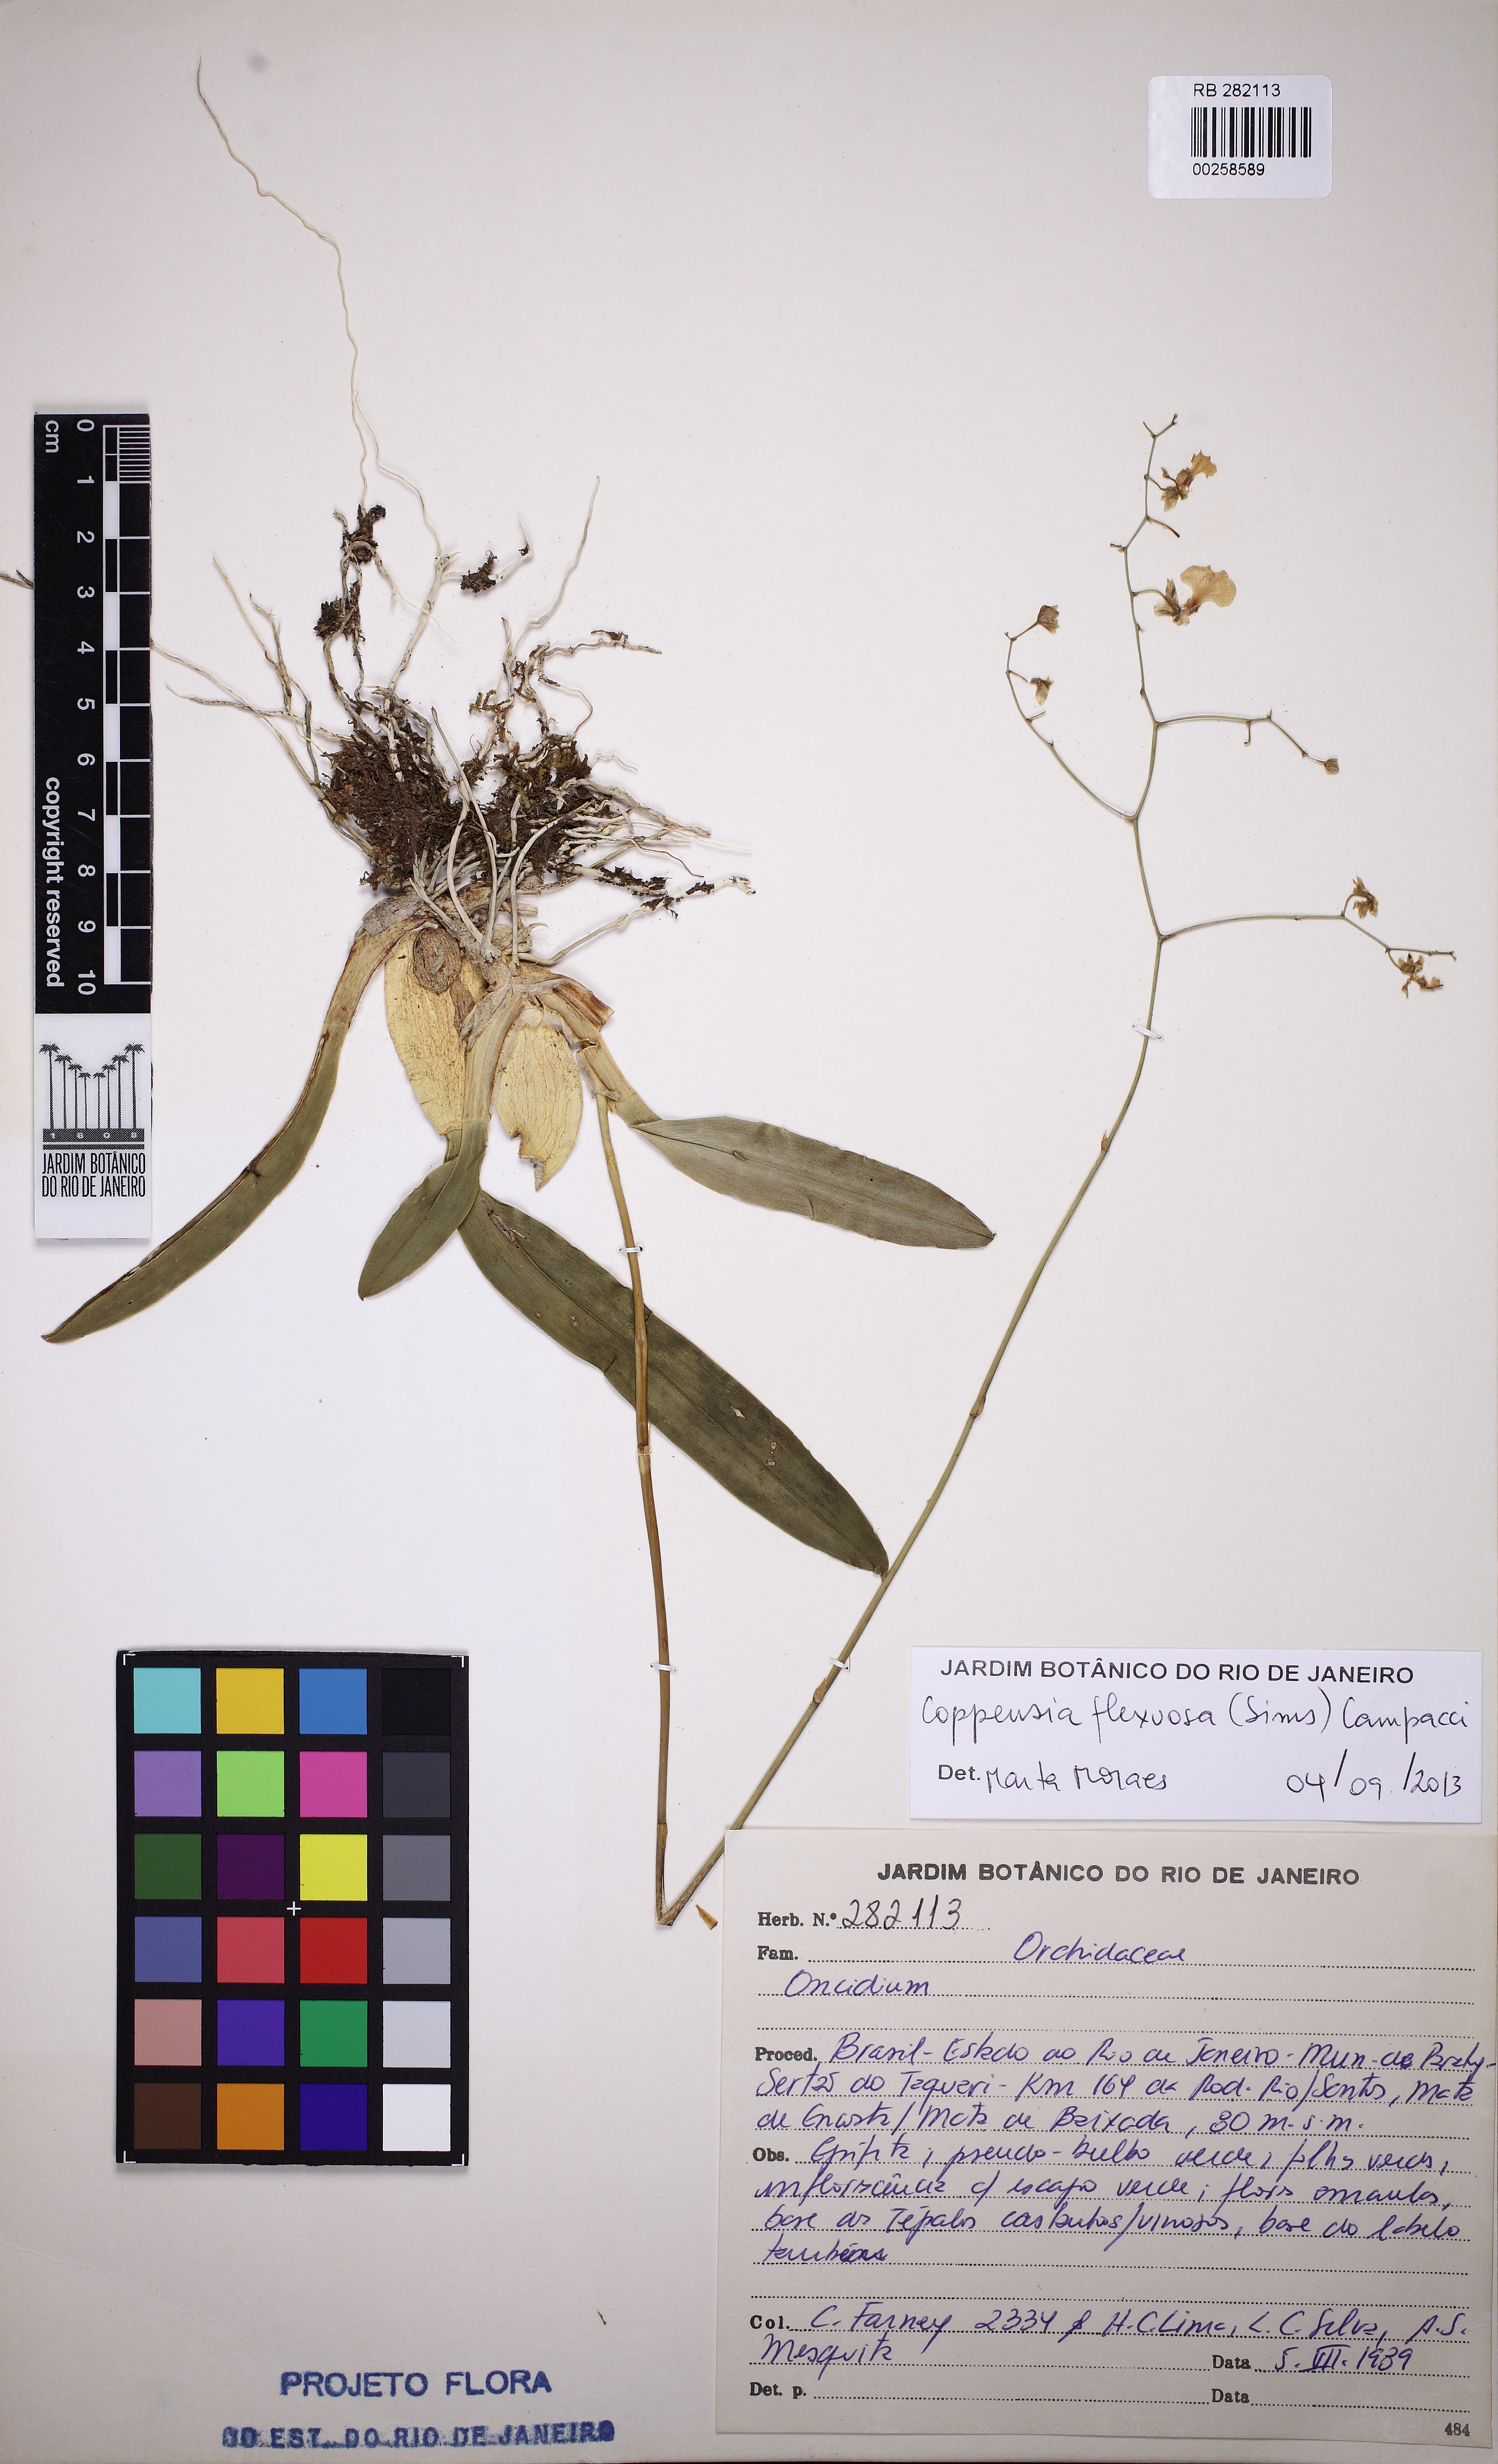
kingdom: Plantae
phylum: Tracheophyta
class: Liliopsida
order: Asparagales
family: Orchidaceae
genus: Gomesa
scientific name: Gomesa flexuosa
